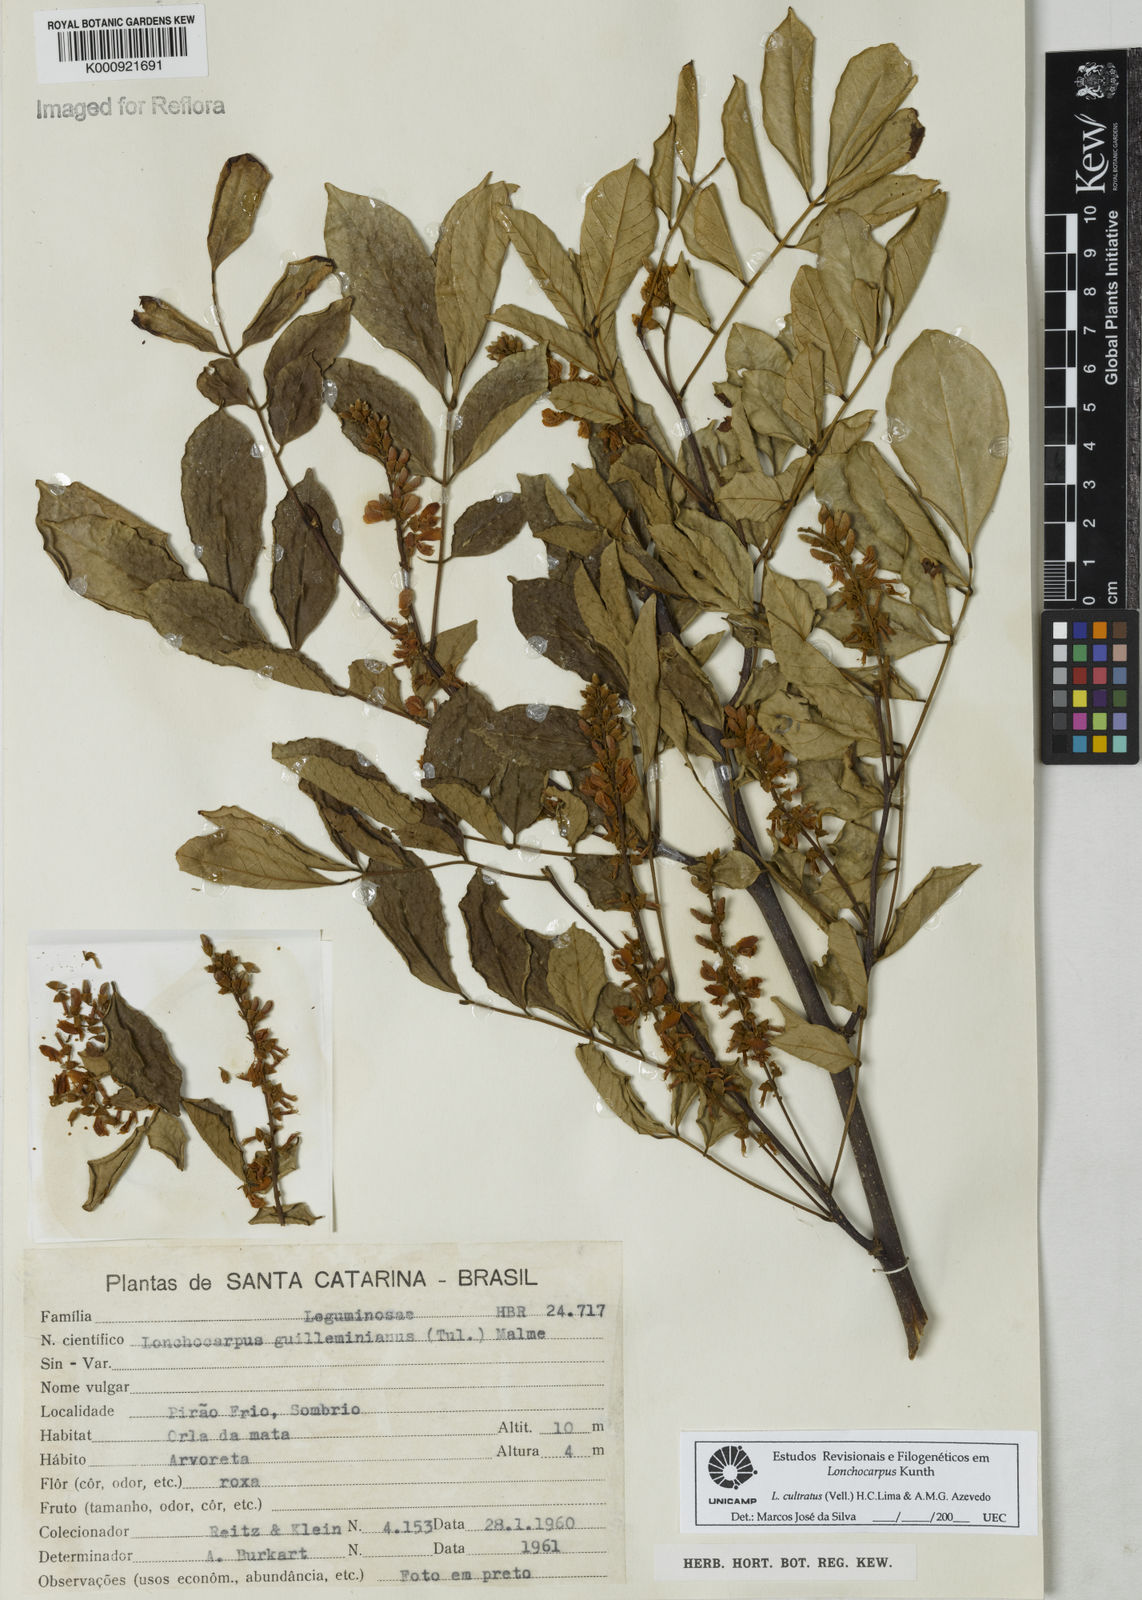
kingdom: Plantae
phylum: Tracheophyta
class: Magnoliopsida
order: Fabales
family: Fabaceae
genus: Lonchocarpus
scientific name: Lonchocarpus cultratus
